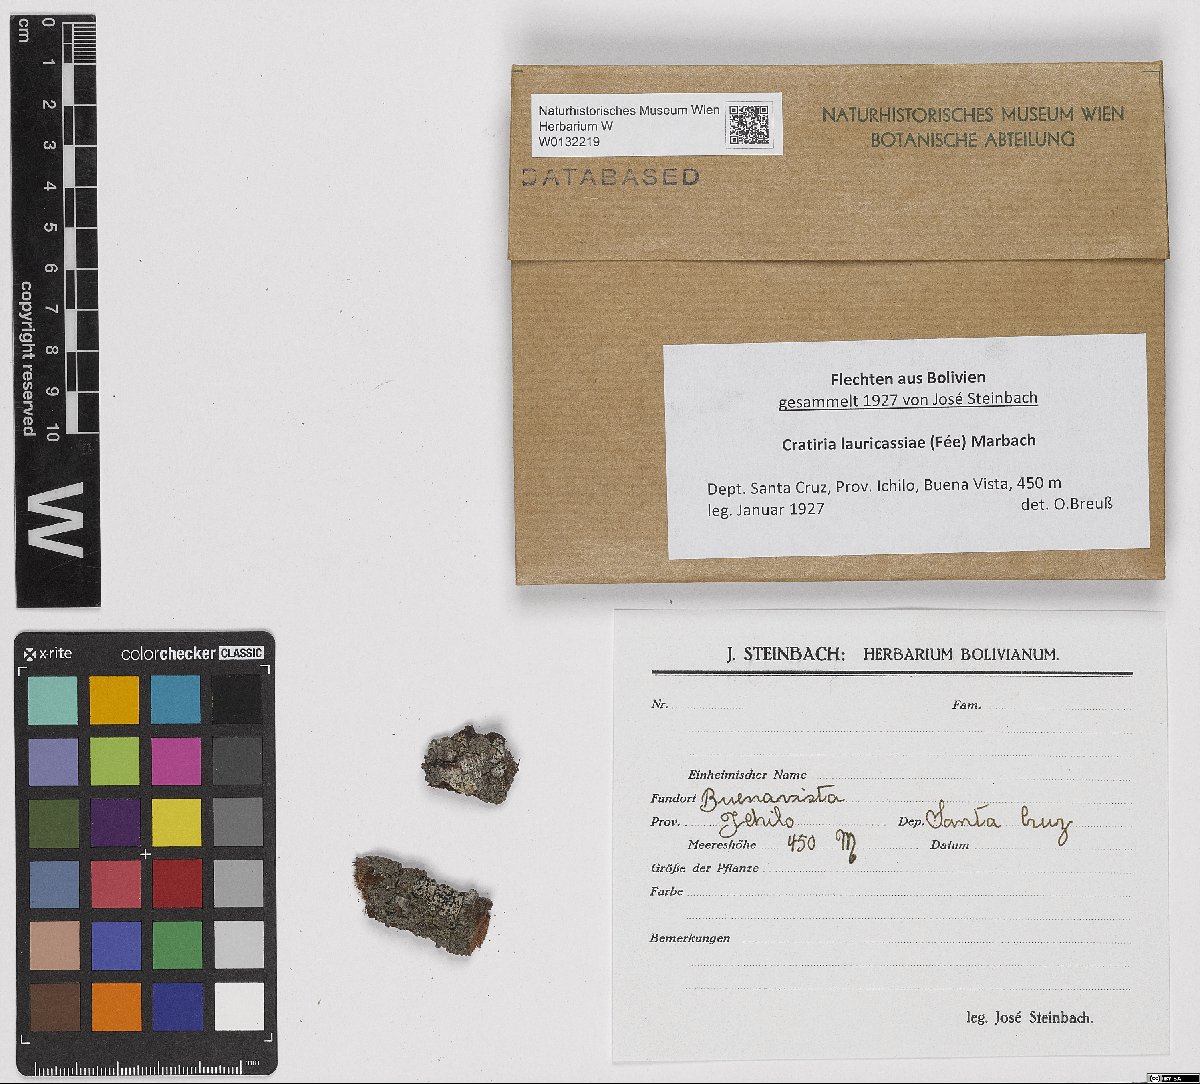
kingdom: Fungi
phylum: Ascomycota
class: Lecanoromycetes
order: Caliciales
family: Caliciaceae
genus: Cratiria
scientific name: Cratiria lauri-cassiae
